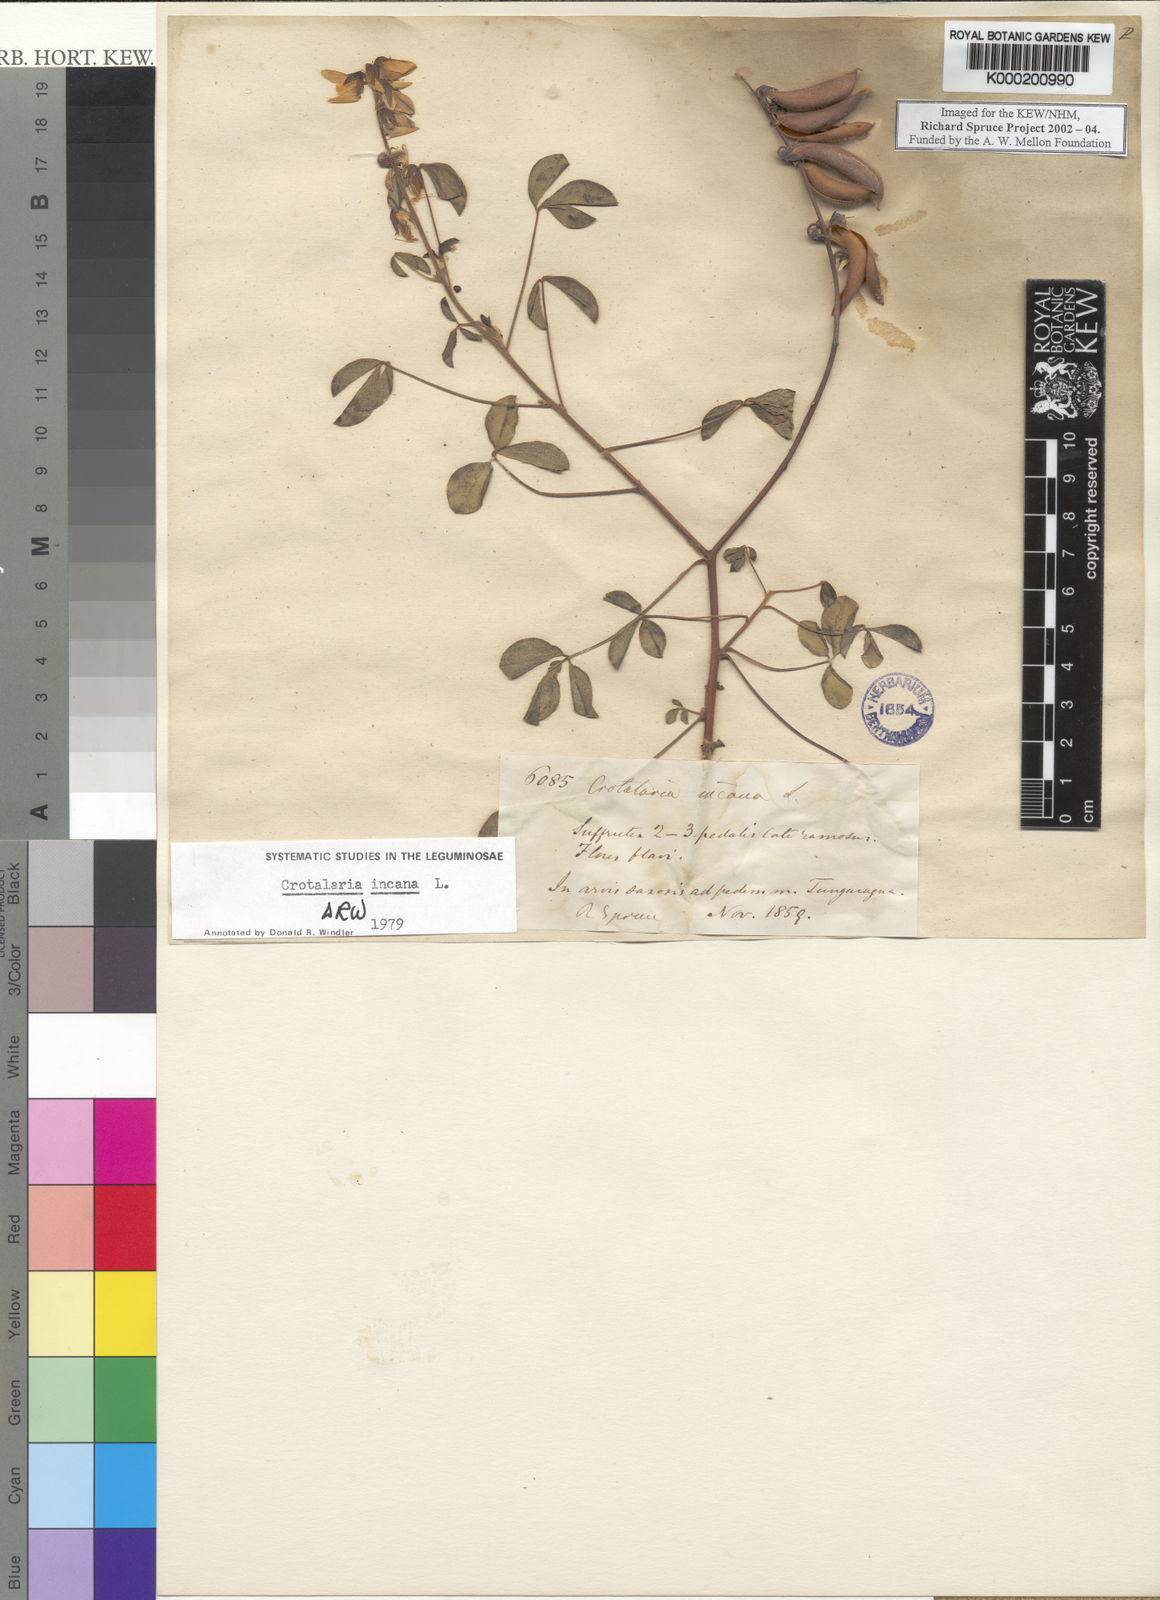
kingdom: Plantae
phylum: Tracheophyta
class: Magnoliopsida
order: Fabales
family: Fabaceae
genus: Crotalaria
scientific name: Crotalaria incana
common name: Shakeshake
